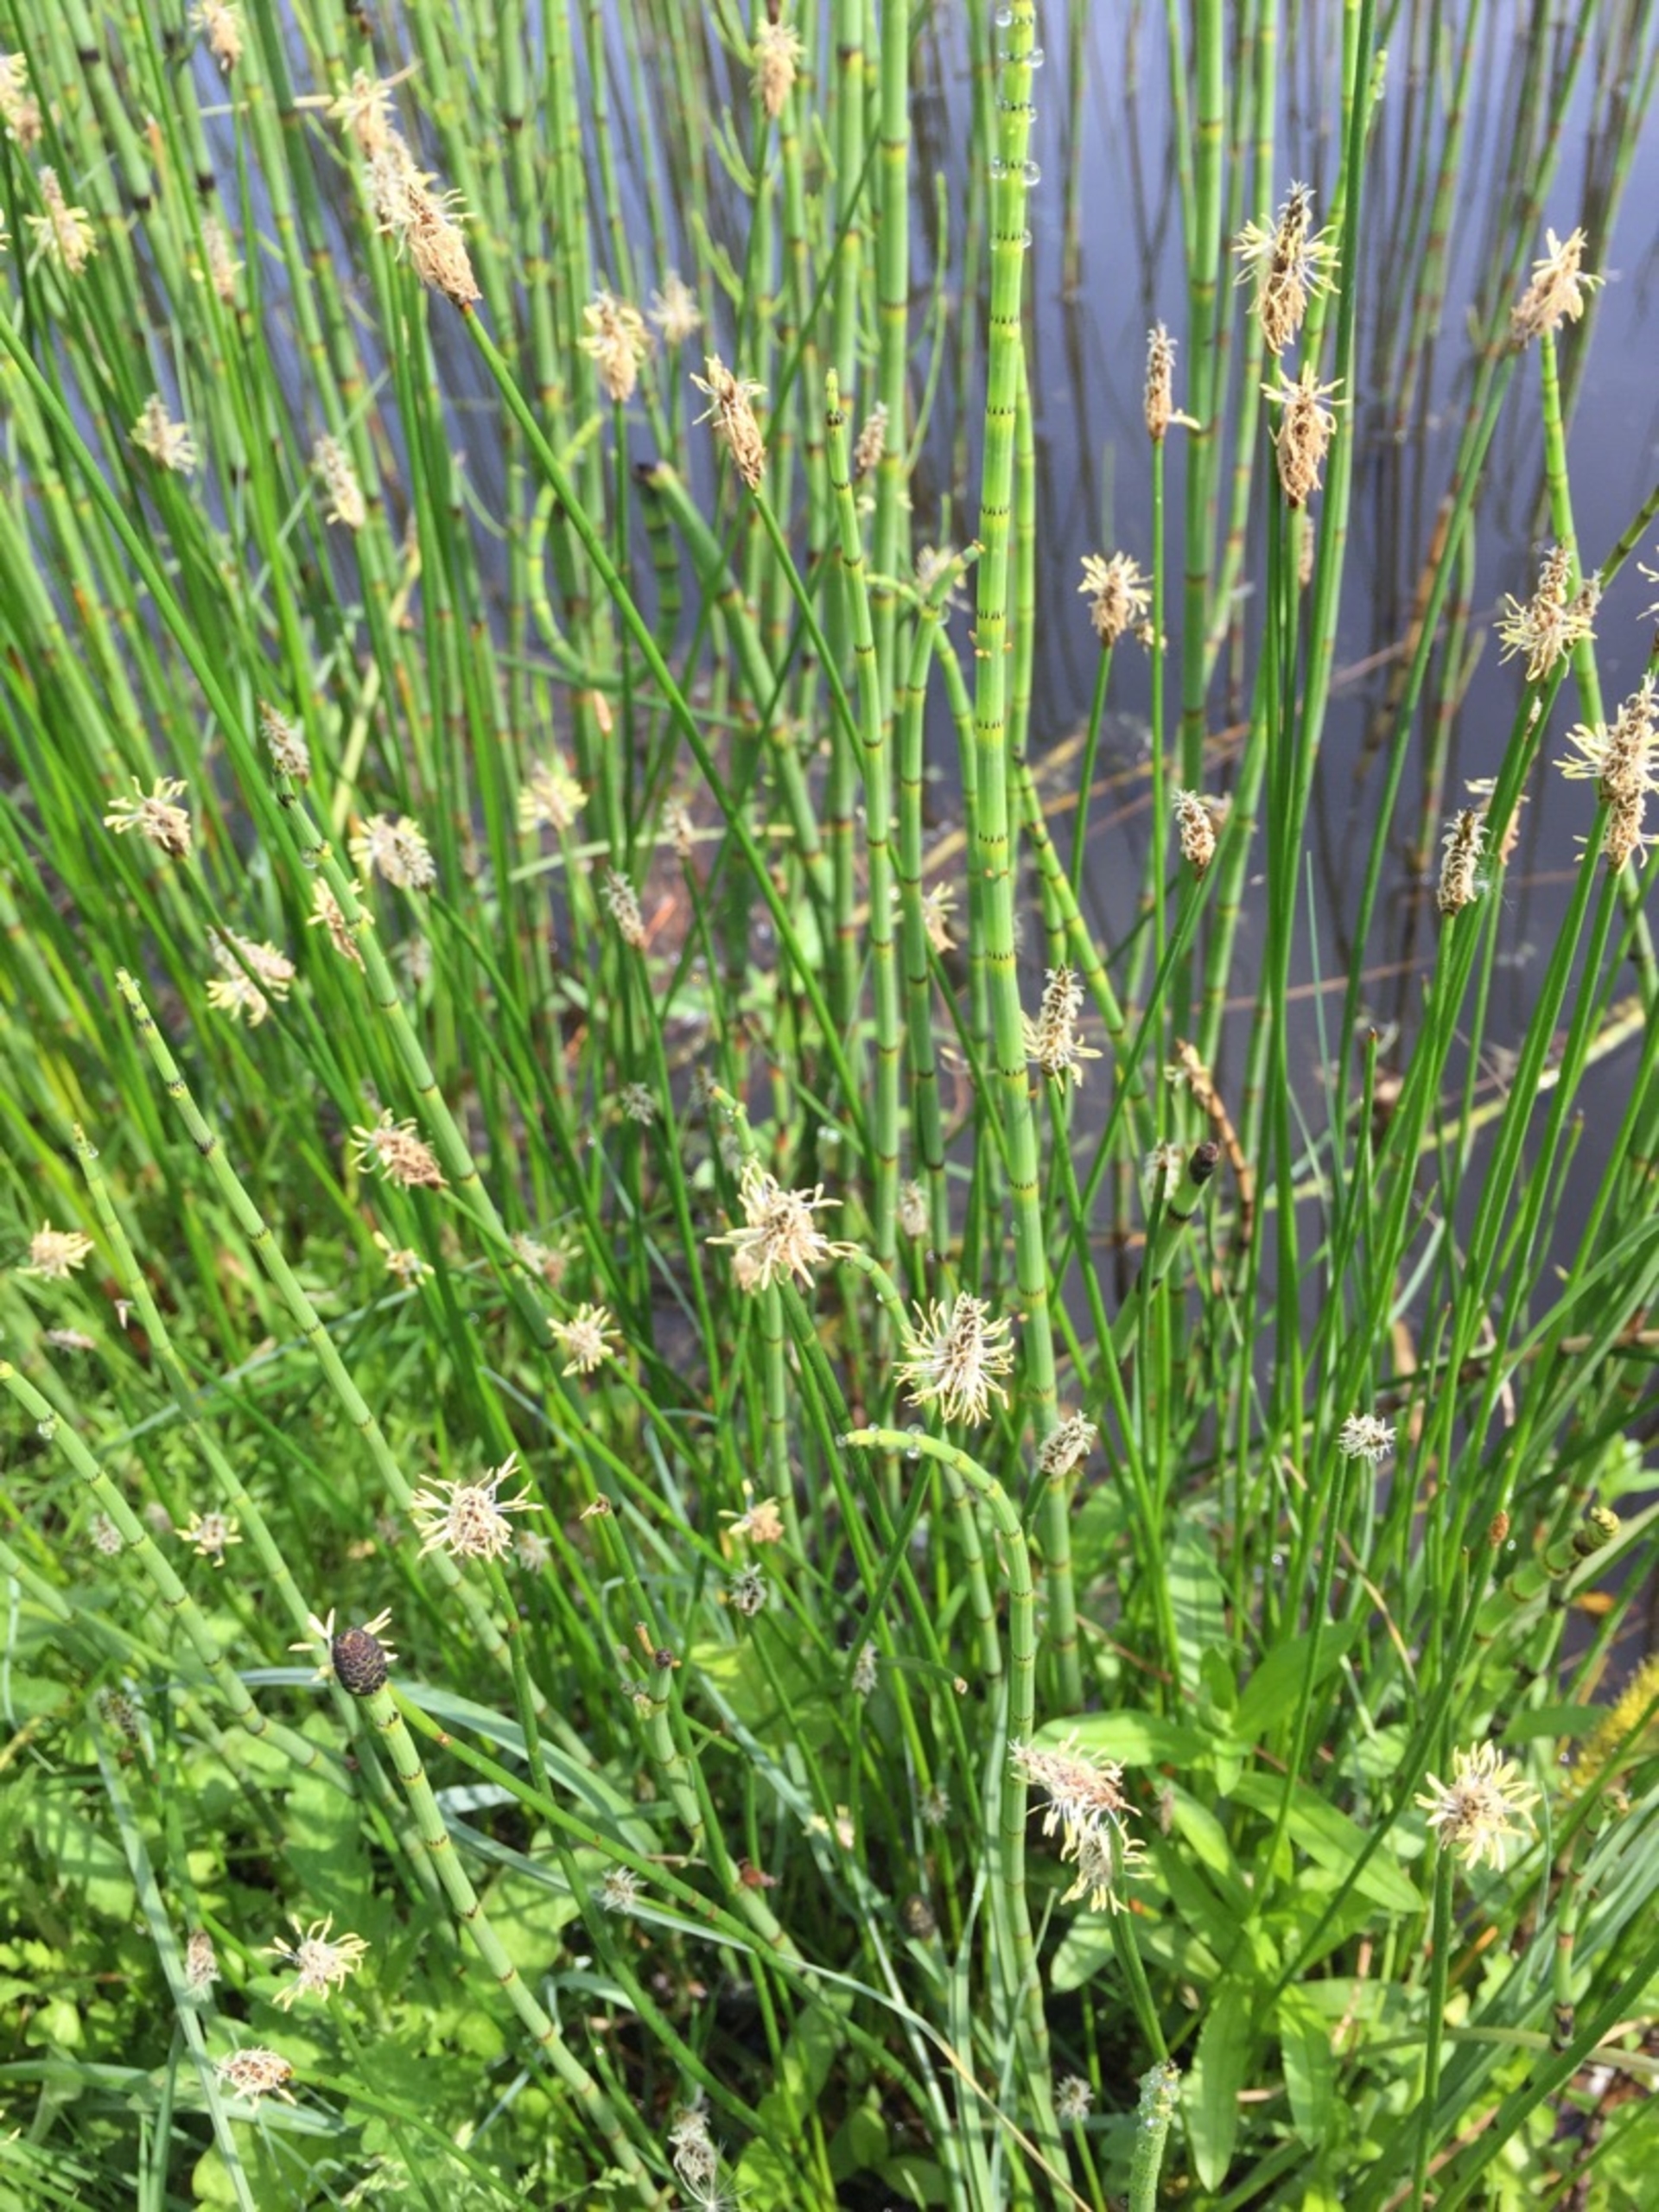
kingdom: Plantae
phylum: Tracheophyta
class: Liliopsida
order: Poales
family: Cyperaceae
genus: Eleocharis
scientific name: Eleocharis palustris
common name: Almindelig sumpstrå
